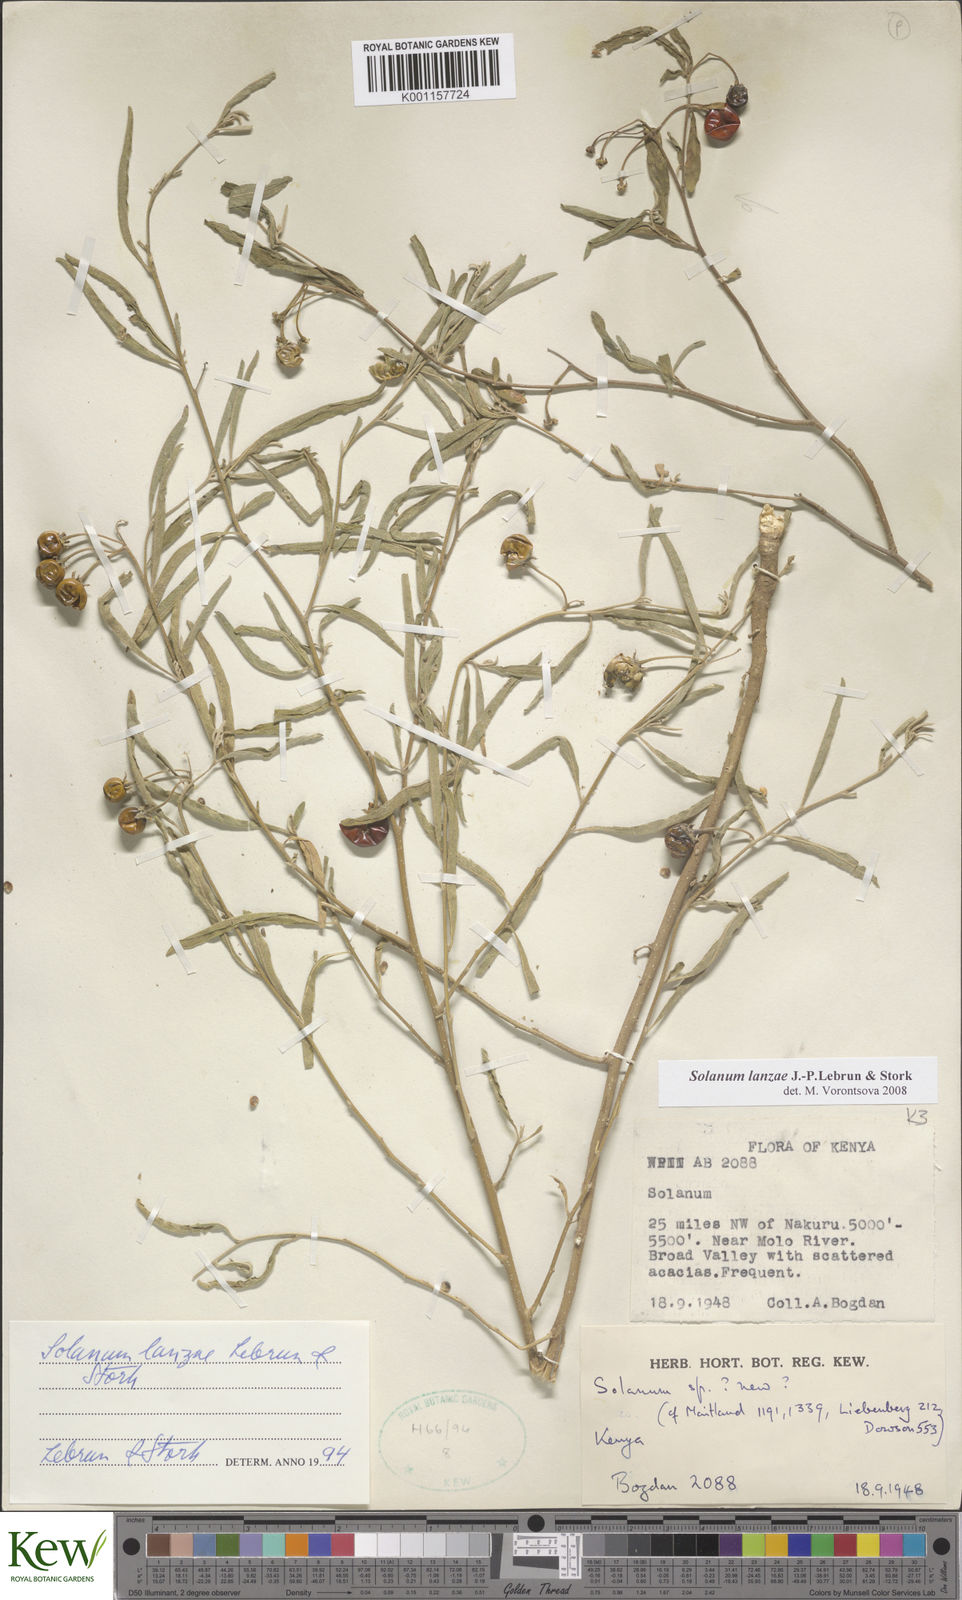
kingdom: Plantae
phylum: Tracheophyta
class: Magnoliopsida
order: Solanales
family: Solanaceae
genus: Solanum
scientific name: Solanum lanzae
